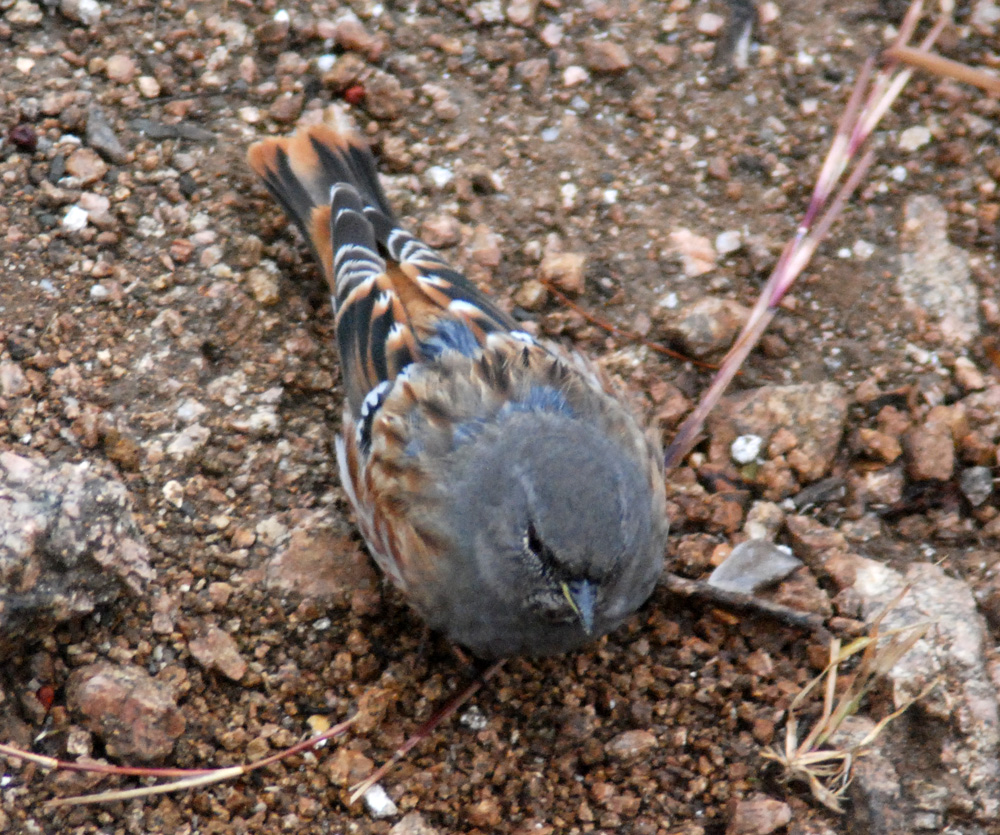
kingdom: Animalia
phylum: Chordata
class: Aves
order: Passeriformes
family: Prunellidae
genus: Prunella
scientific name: Prunella collaris
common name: Alpine accentor
